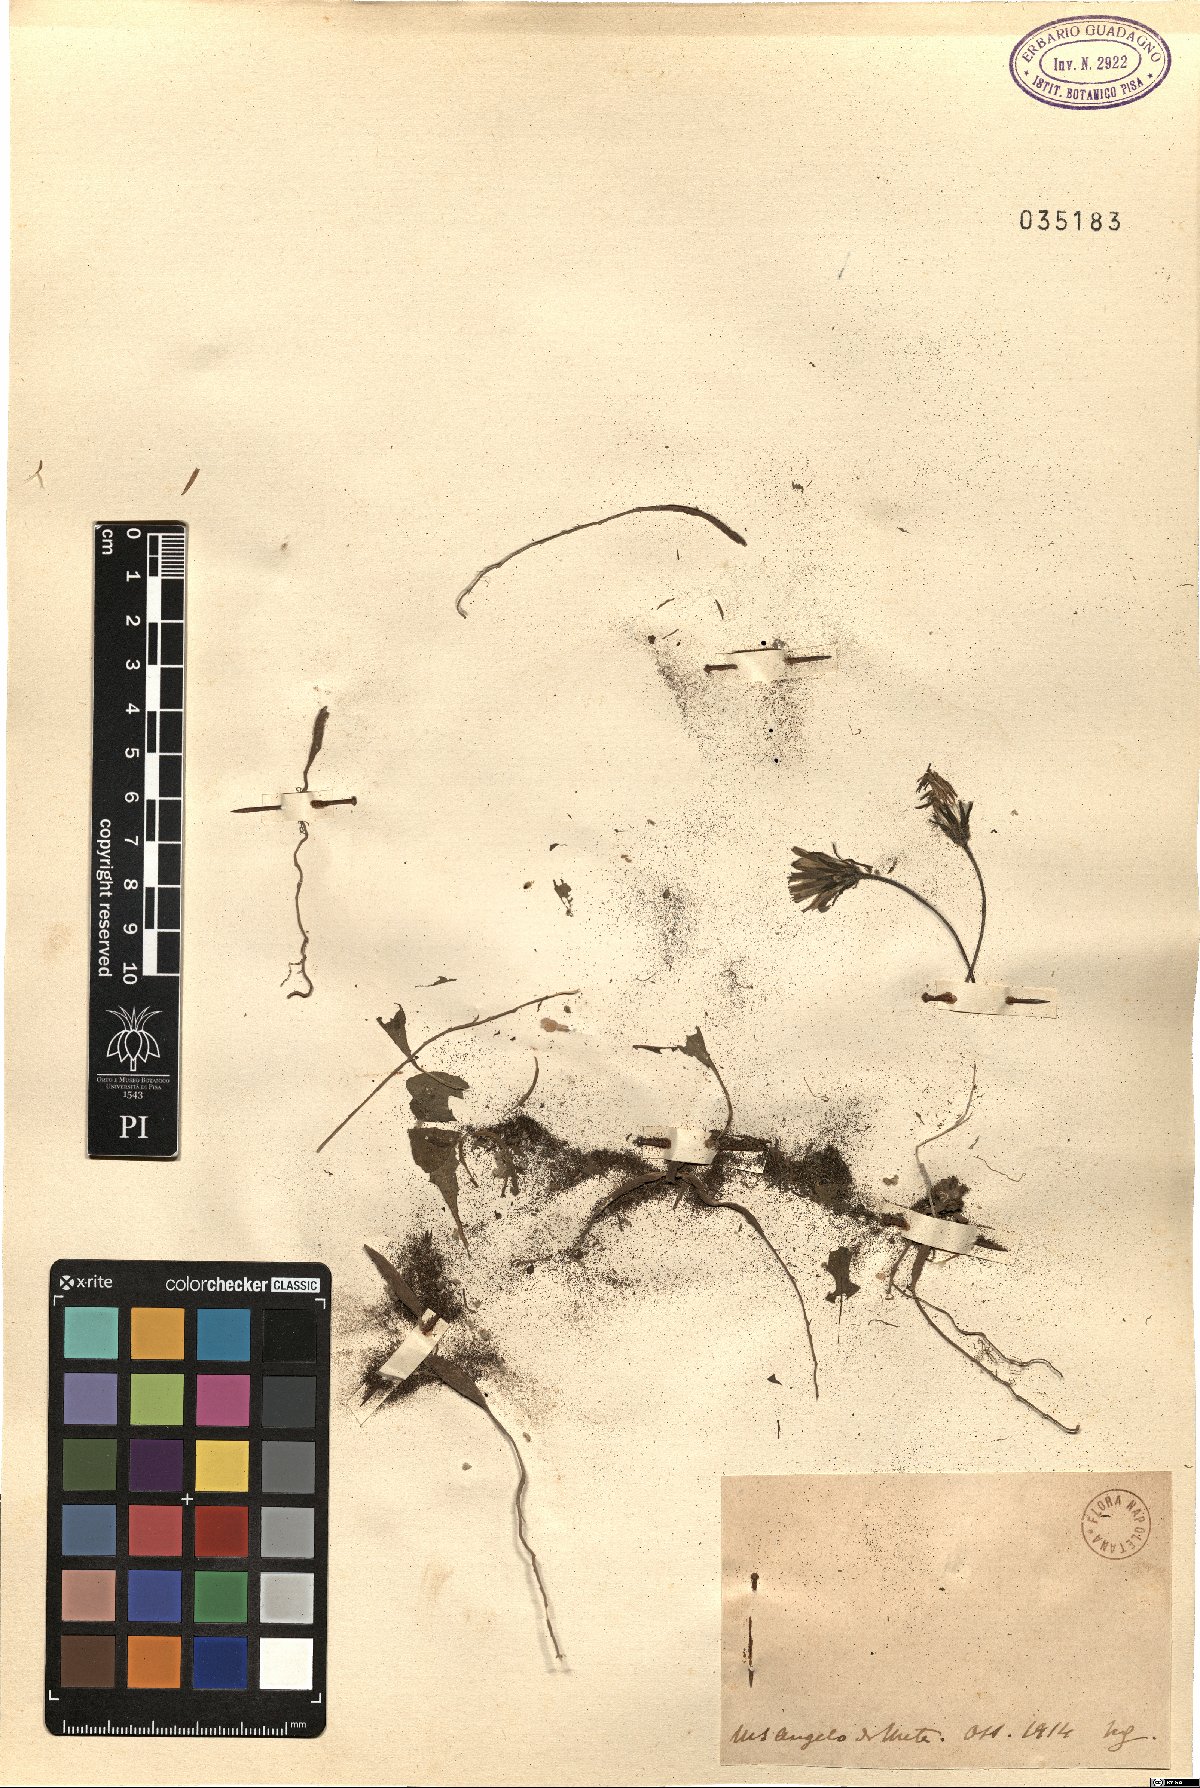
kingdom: Plantae
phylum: Tracheophyta
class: Magnoliopsida
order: Asterales
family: Asteraceae
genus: Thrincia
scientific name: Thrincia
